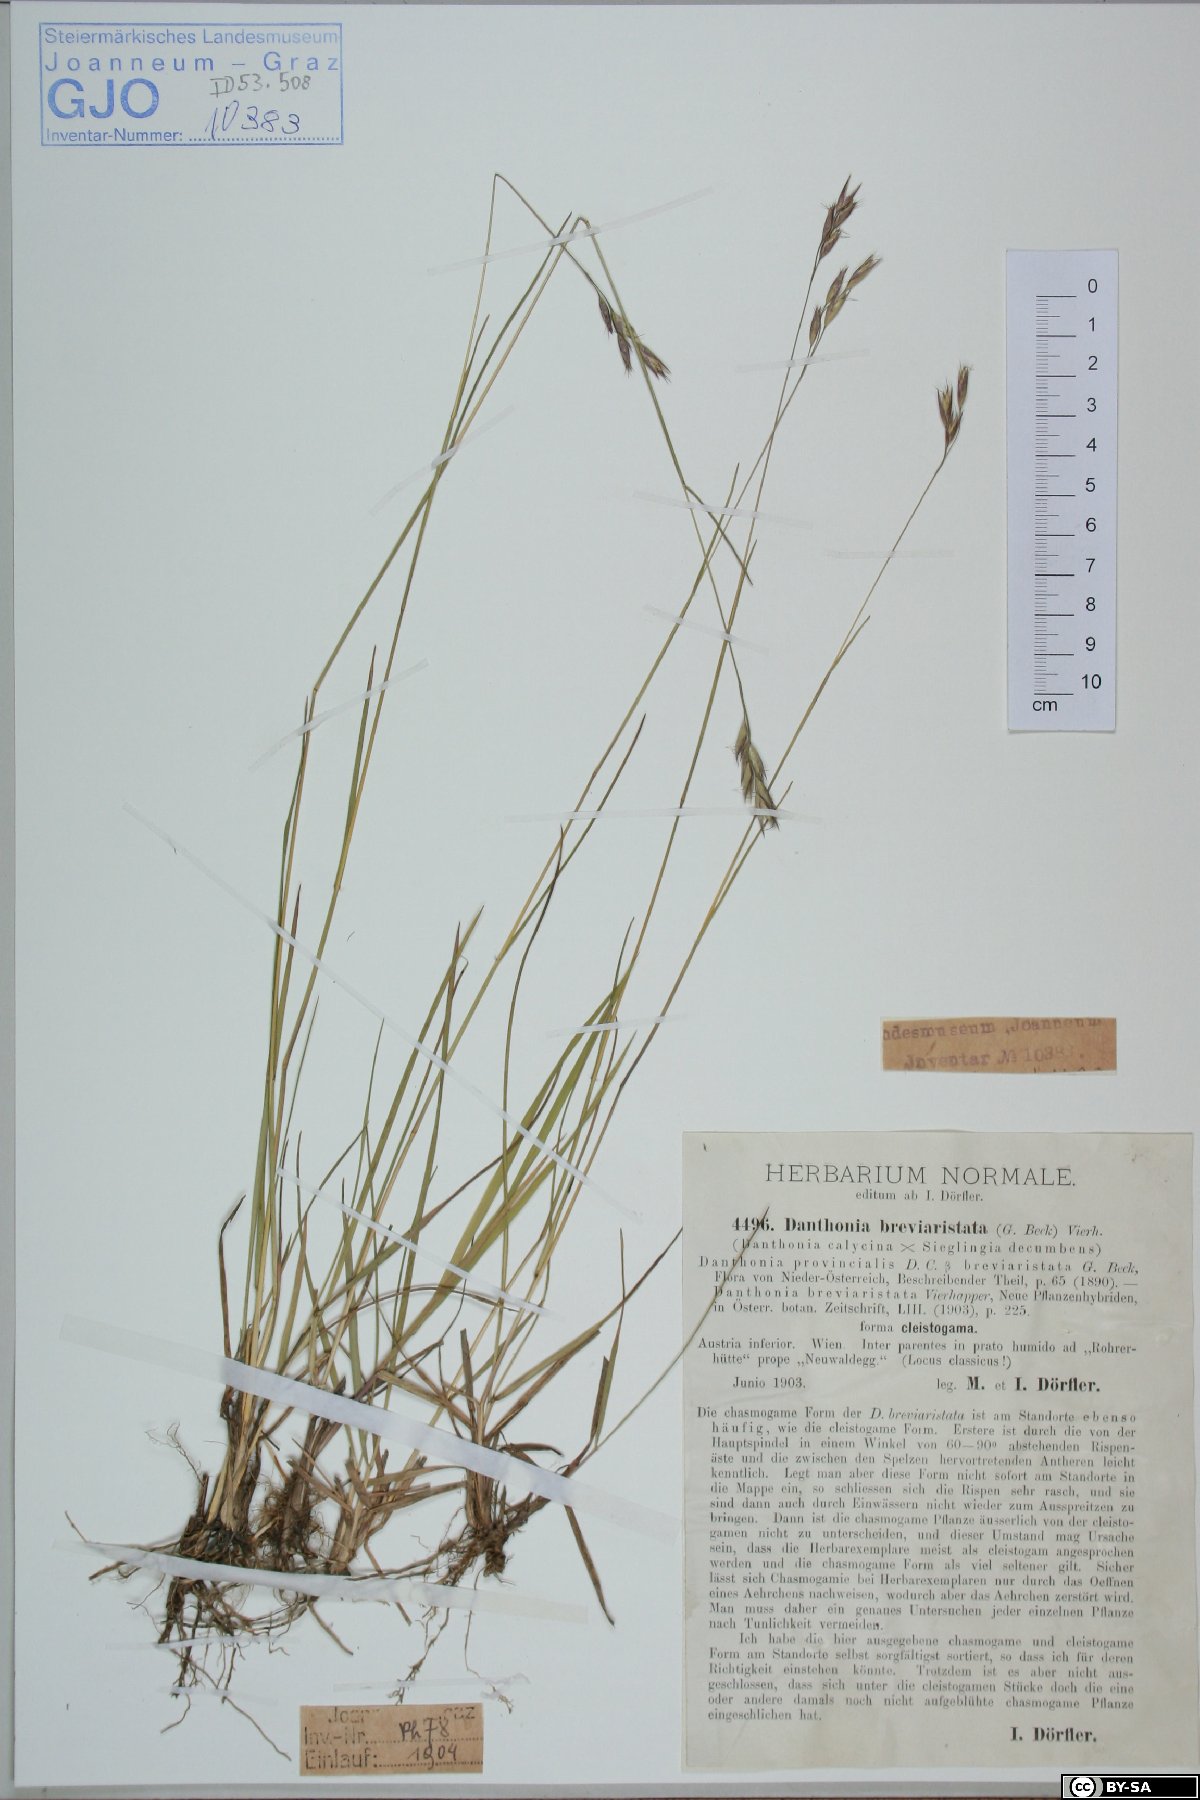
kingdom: Plantae
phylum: Tracheophyta
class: Liliopsida
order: Poales
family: Poaceae
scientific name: Poaceae
